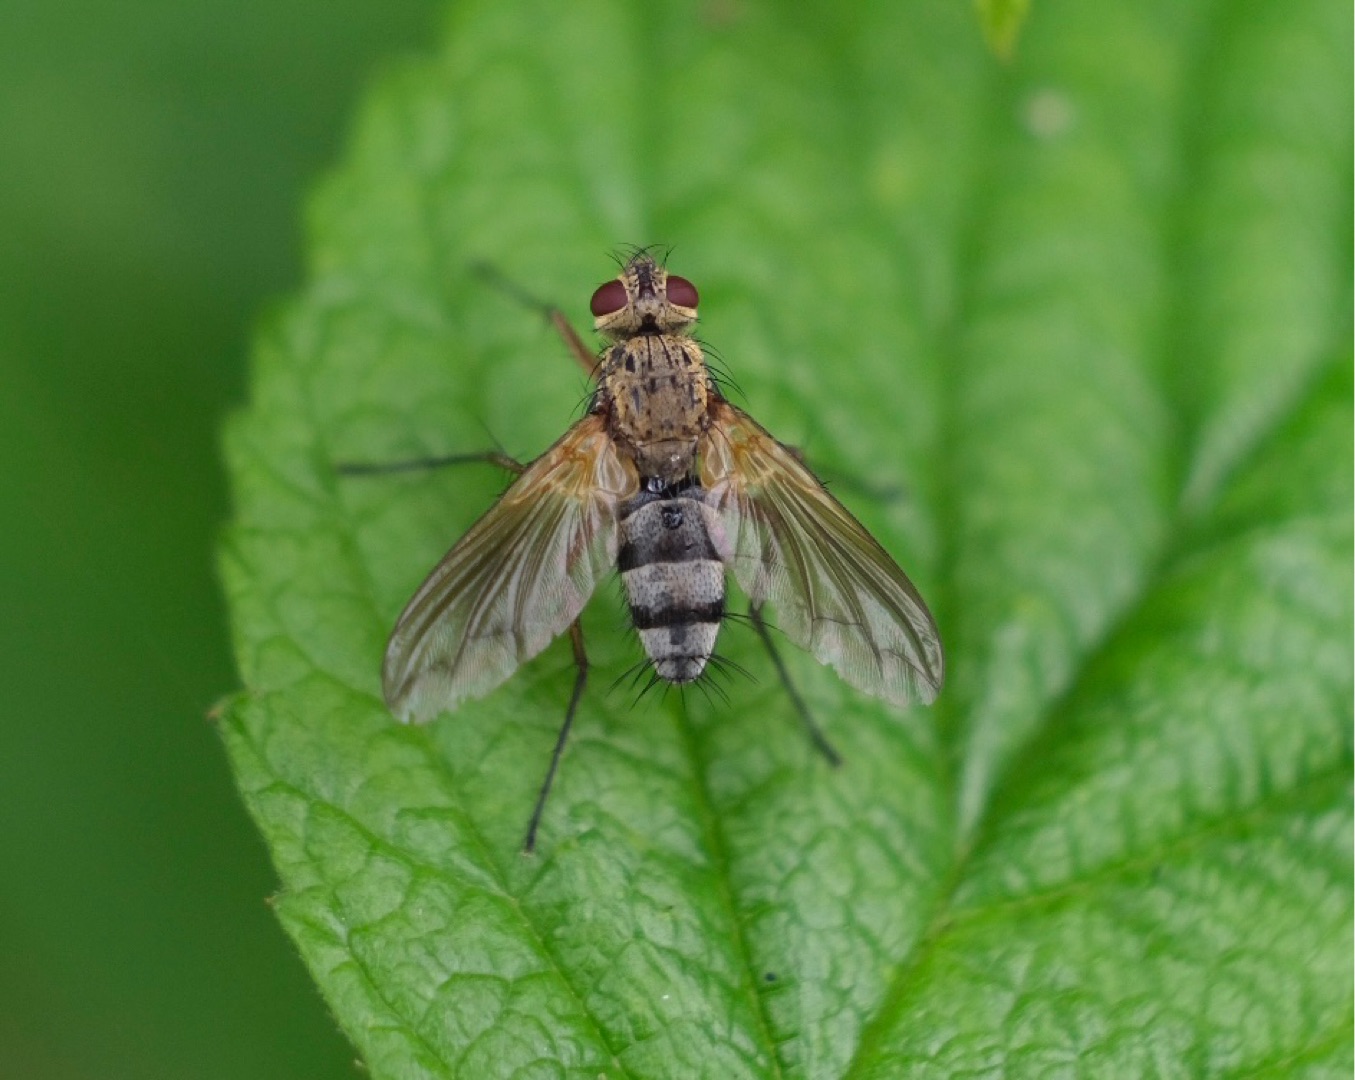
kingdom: Animalia
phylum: Arthropoda
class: Insecta
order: Diptera
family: Tachinidae
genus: Dexiosoma
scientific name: Dexiosoma caninum
